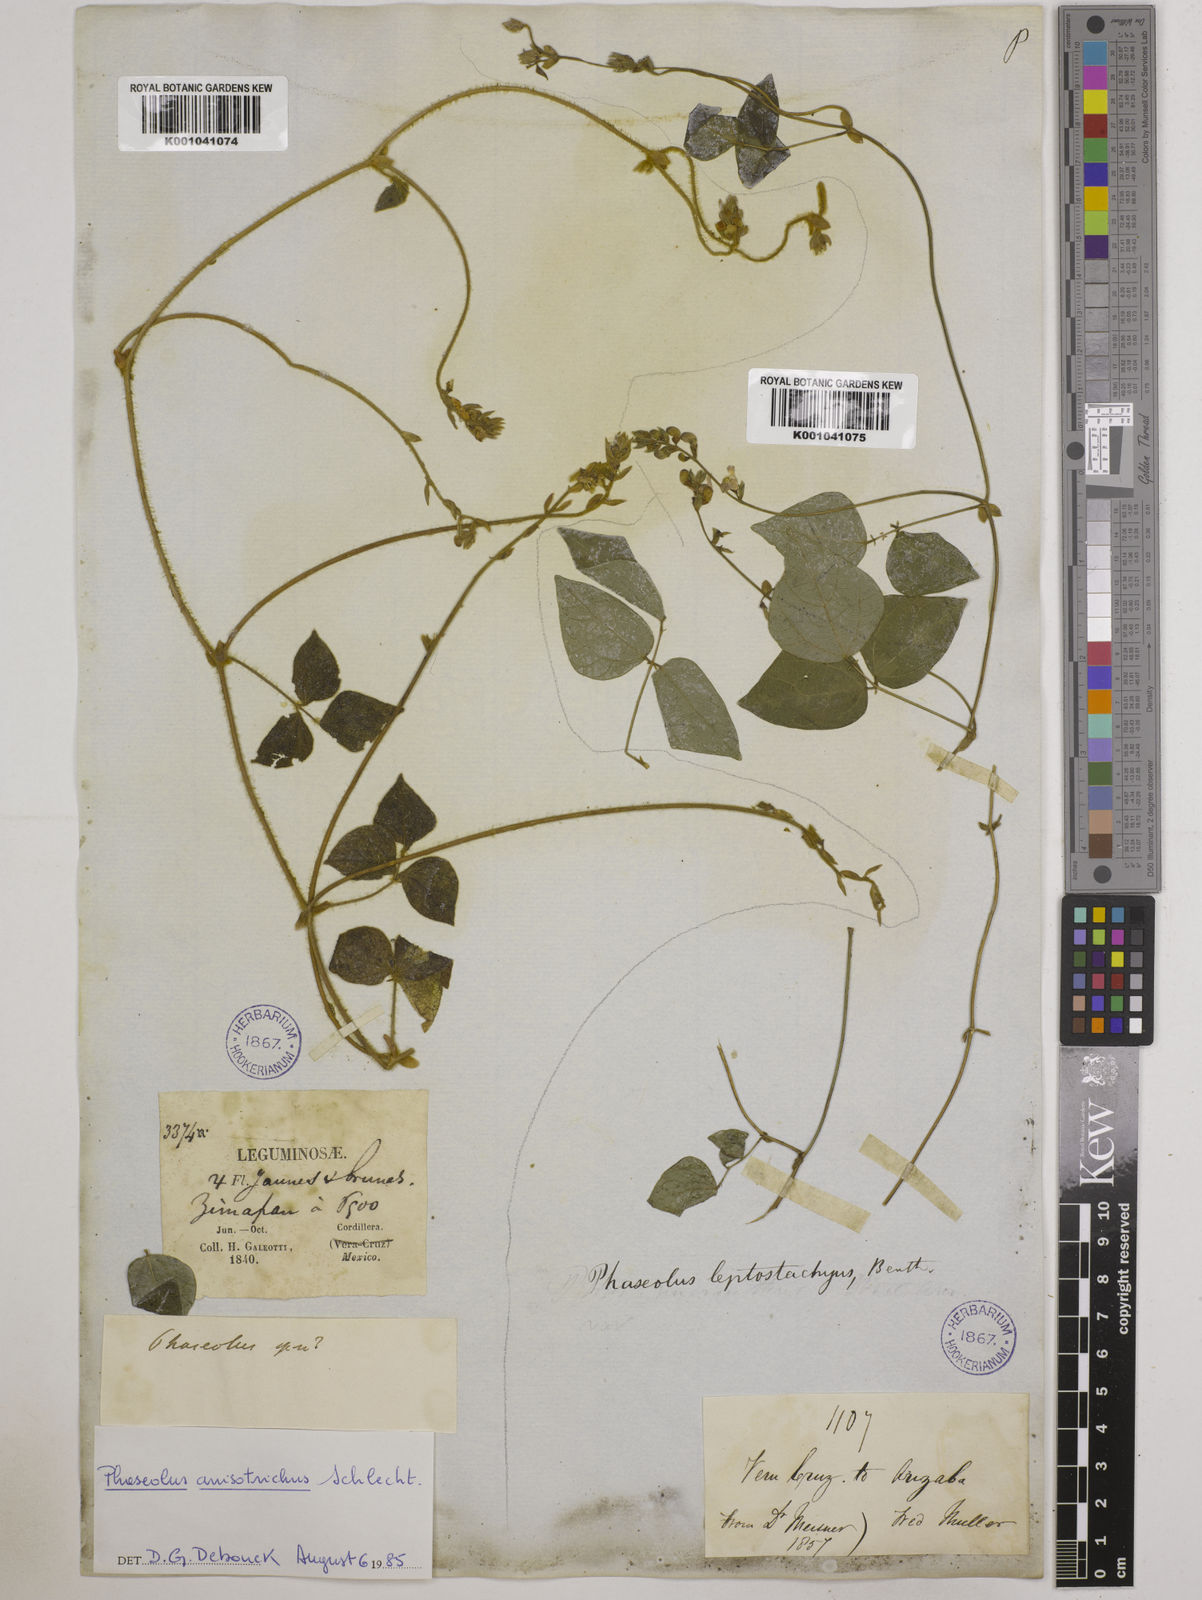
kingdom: Plantae
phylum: Tracheophyta
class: Magnoliopsida
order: Fabales
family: Fabaceae
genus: Phaseolus
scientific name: Phaseolus
